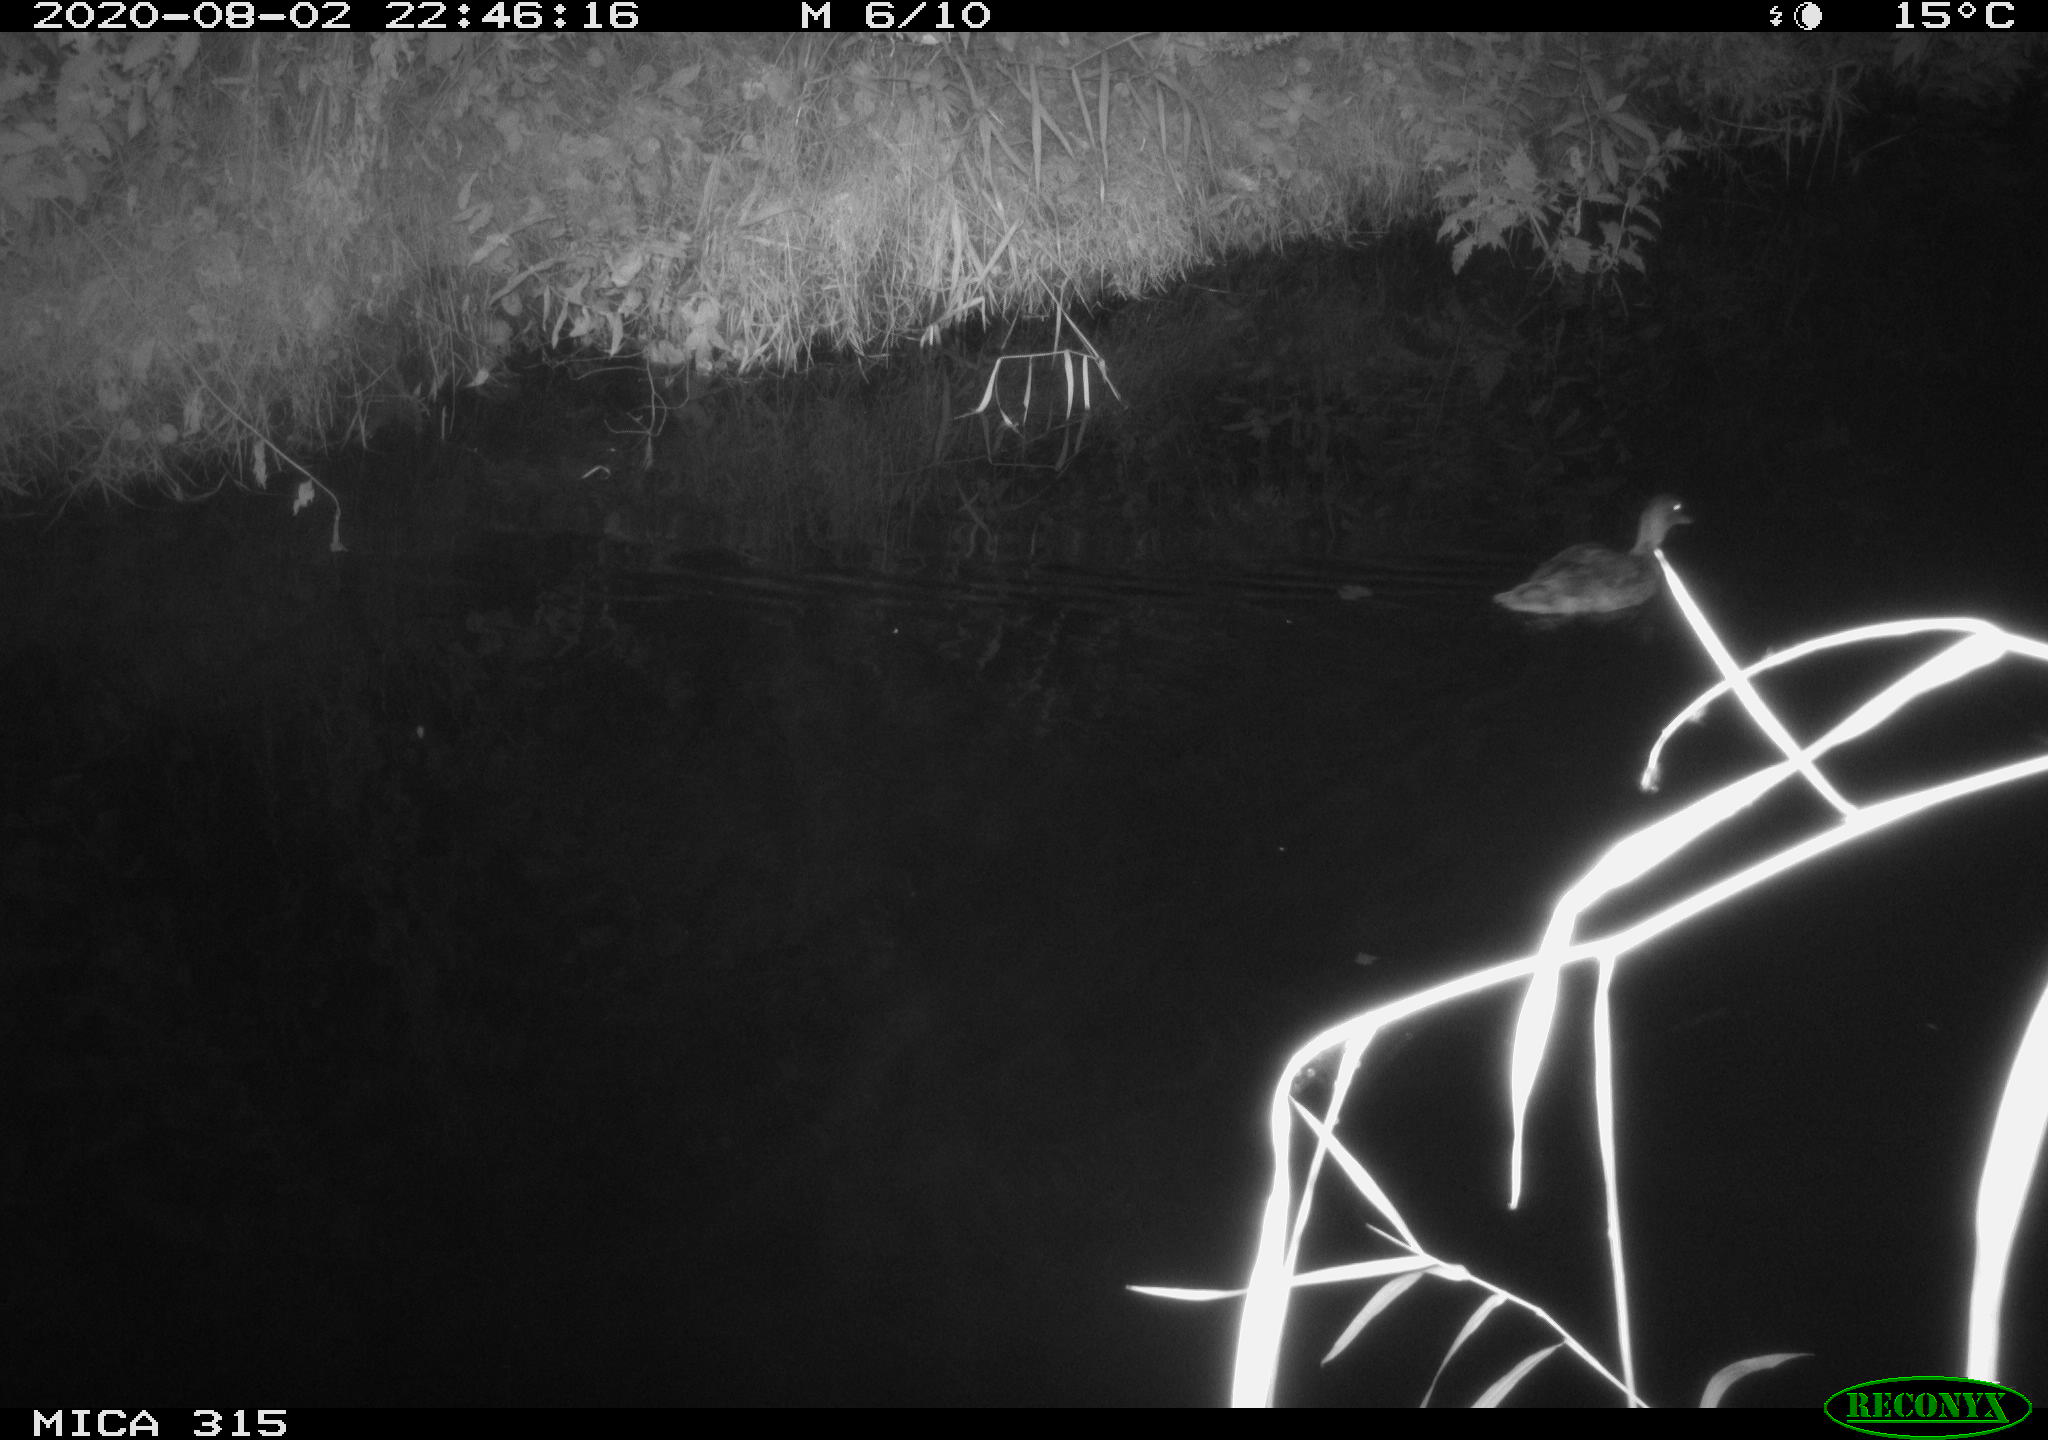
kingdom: Animalia
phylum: Chordata
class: Aves
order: Anseriformes
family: Anatidae
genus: Anas
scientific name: Anas platyrhynchos
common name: Mallard
